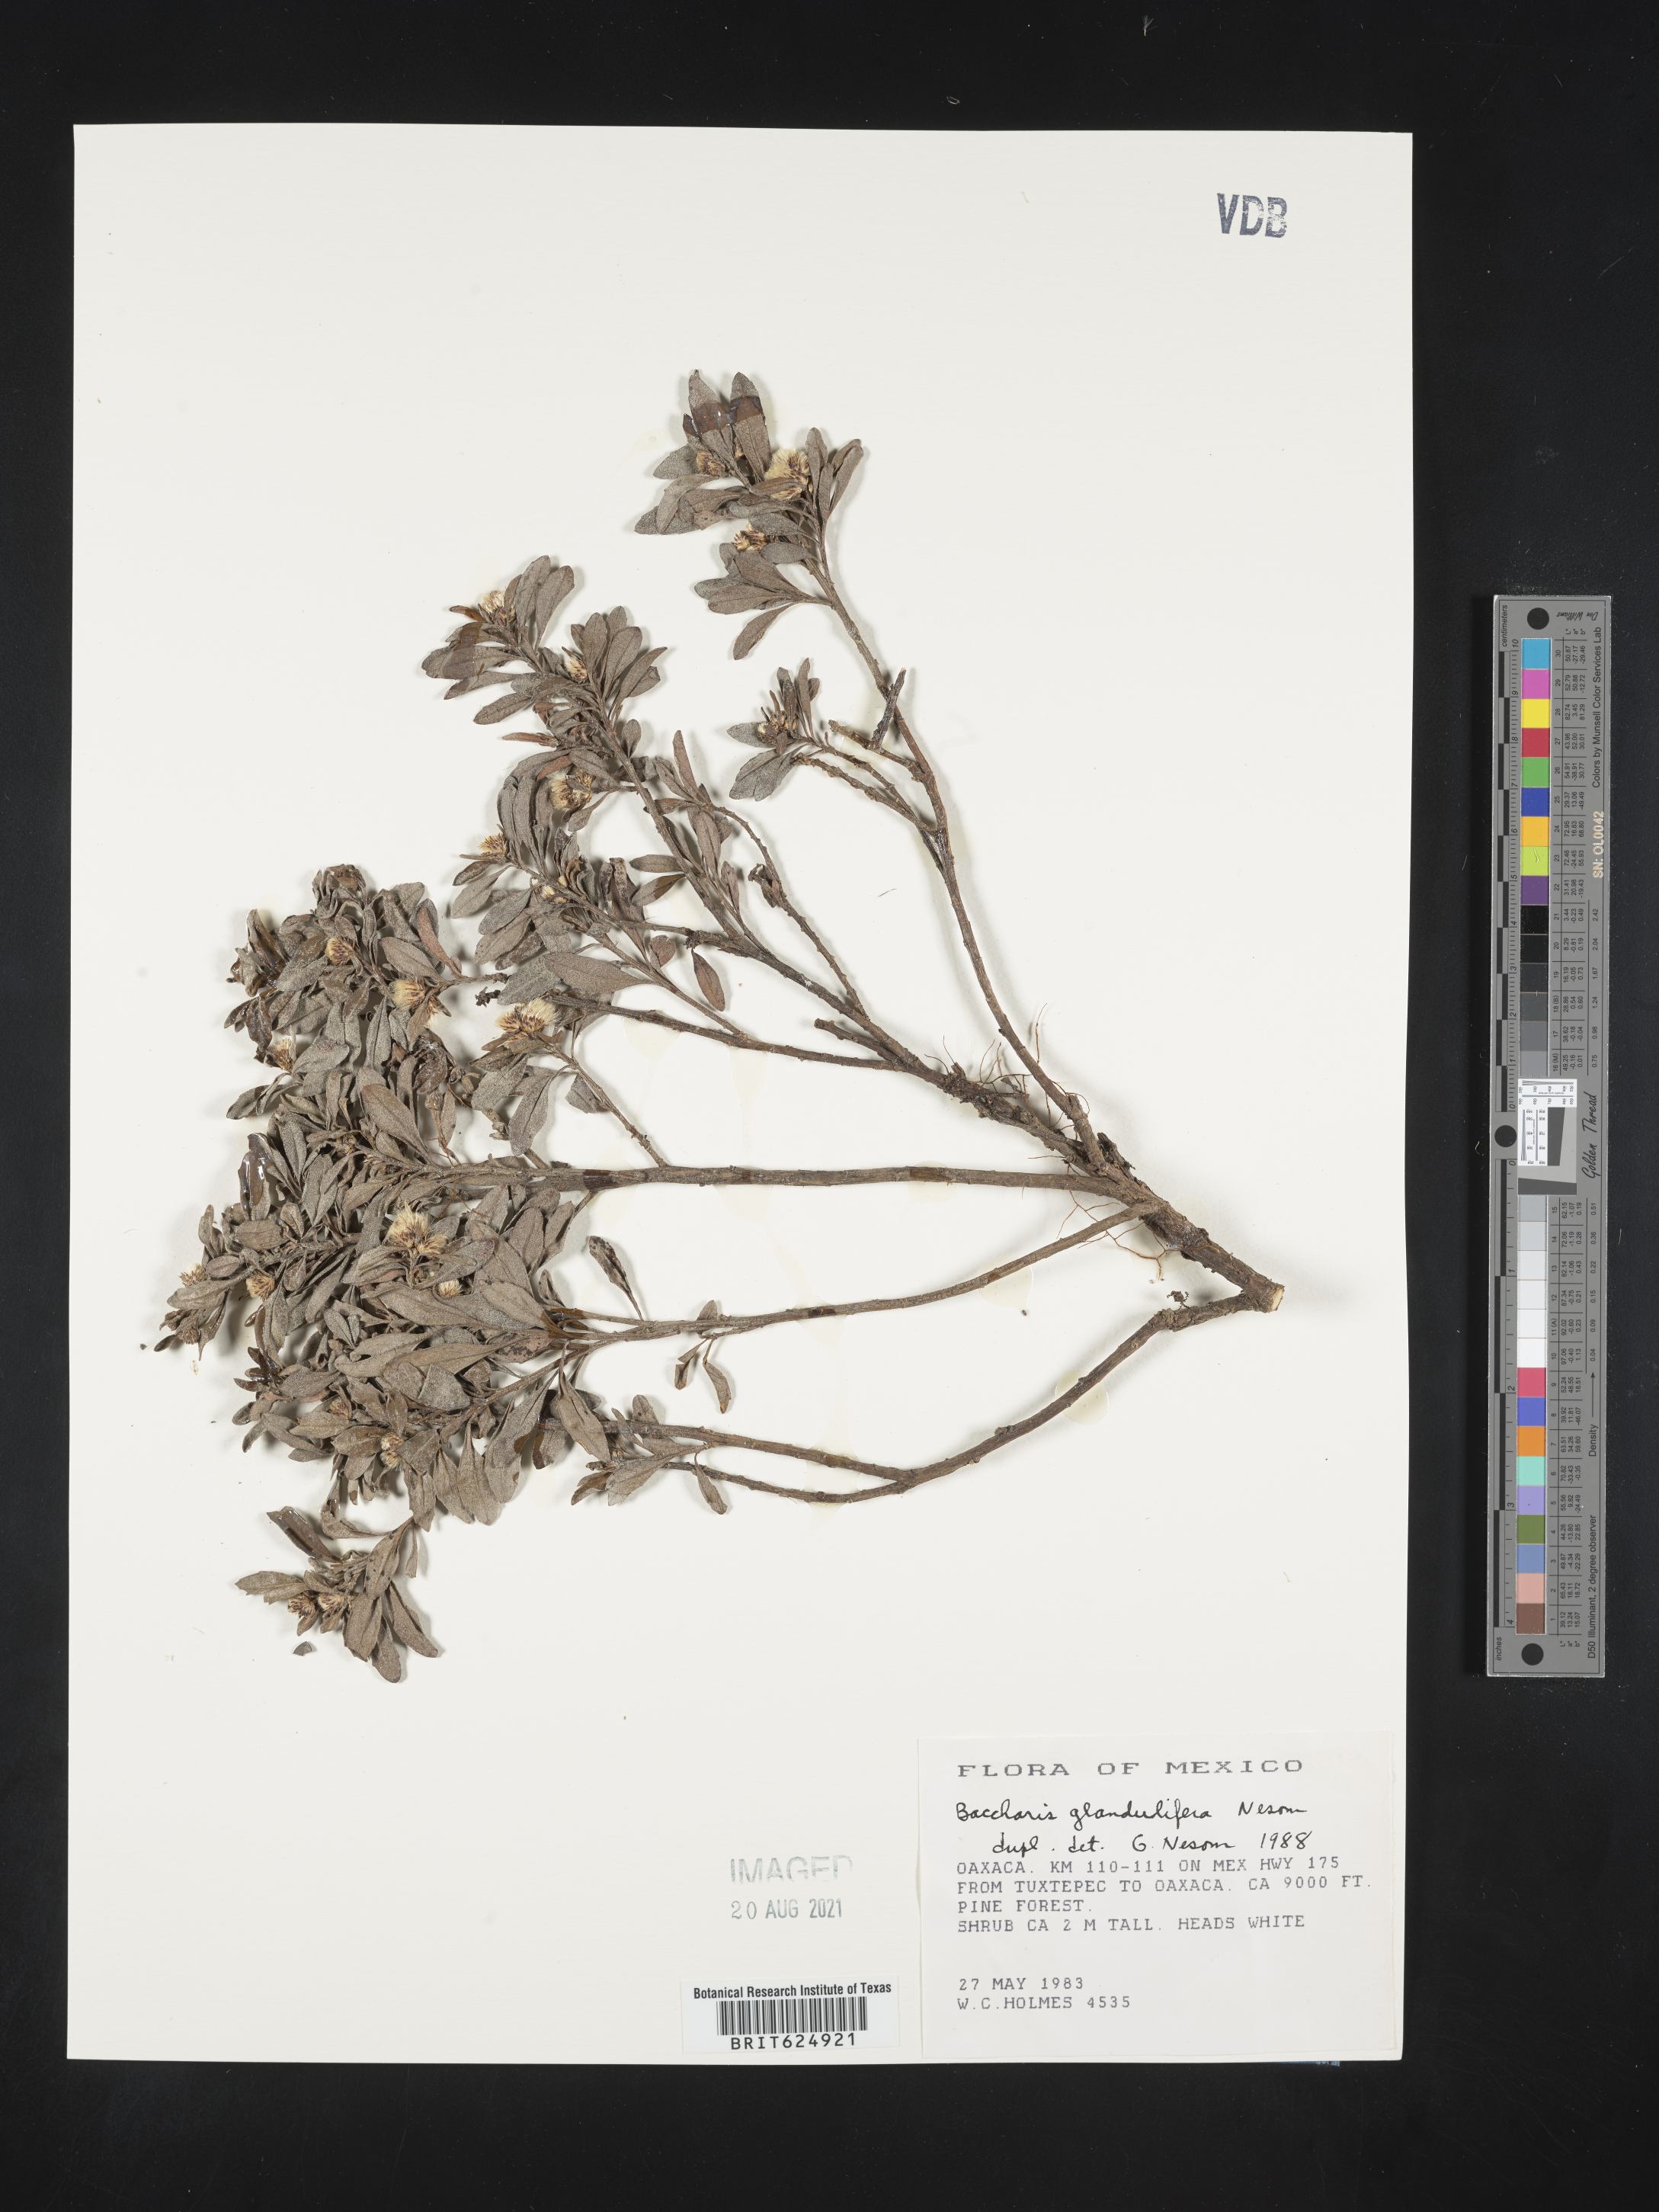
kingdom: Plantae
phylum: Tracheophyta
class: Magnoliopsida
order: Asterales
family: Asteraceae
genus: Baccharis
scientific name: Baccharis
